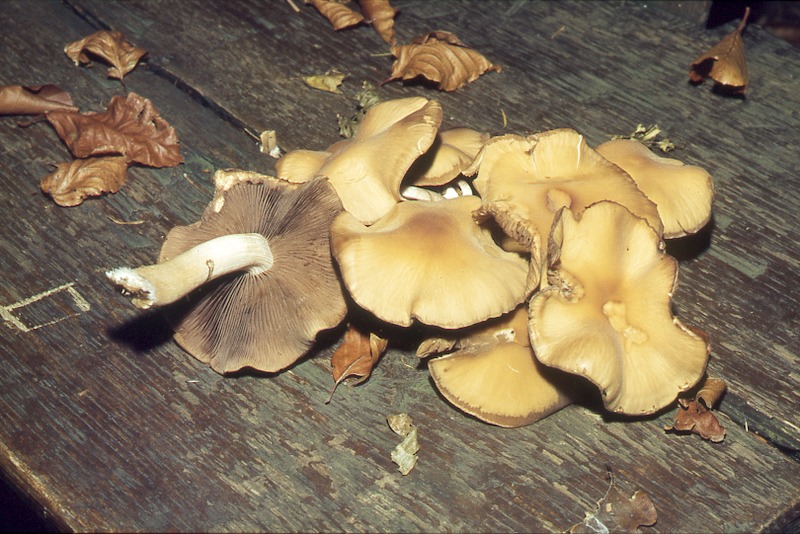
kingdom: Fungi
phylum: Basidiomycota
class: Agaricomycetes
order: Agaricales
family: Psathyrellaceae
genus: Homophron
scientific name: Homophron spadiceum
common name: Chestnut brittlestem
